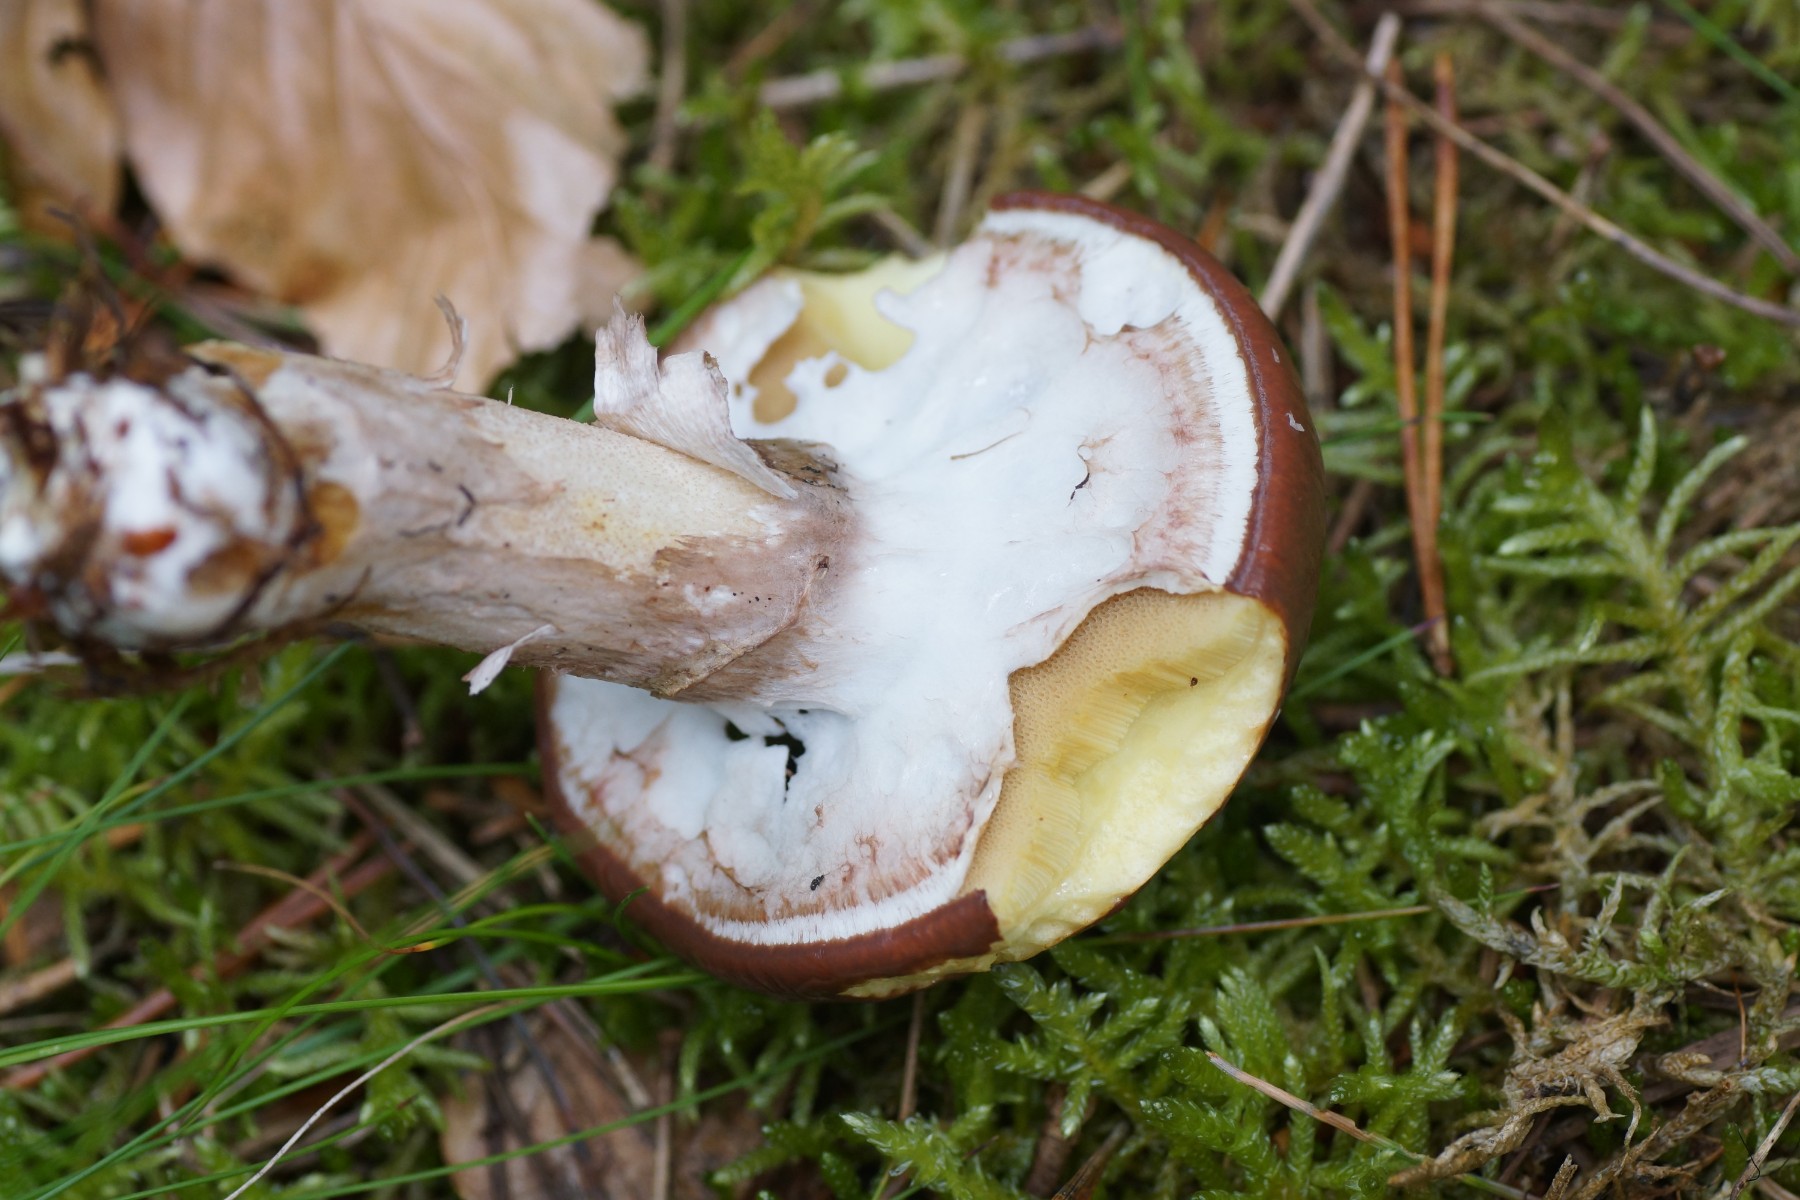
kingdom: Fungi
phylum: Basidiomycota
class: Agaricomycetes
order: Boletales
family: Suillaceae
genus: Suillus
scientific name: Suillus luteus
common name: brungul slimrørhat
